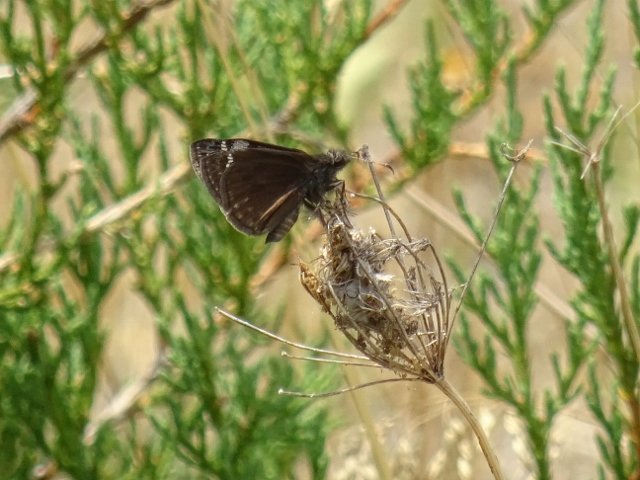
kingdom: Animalia
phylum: Arthropoda
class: Insecta
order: Lepidoptera
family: Hesperiidae
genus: Gesta
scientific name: Gesta
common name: Columbine Duskywing
